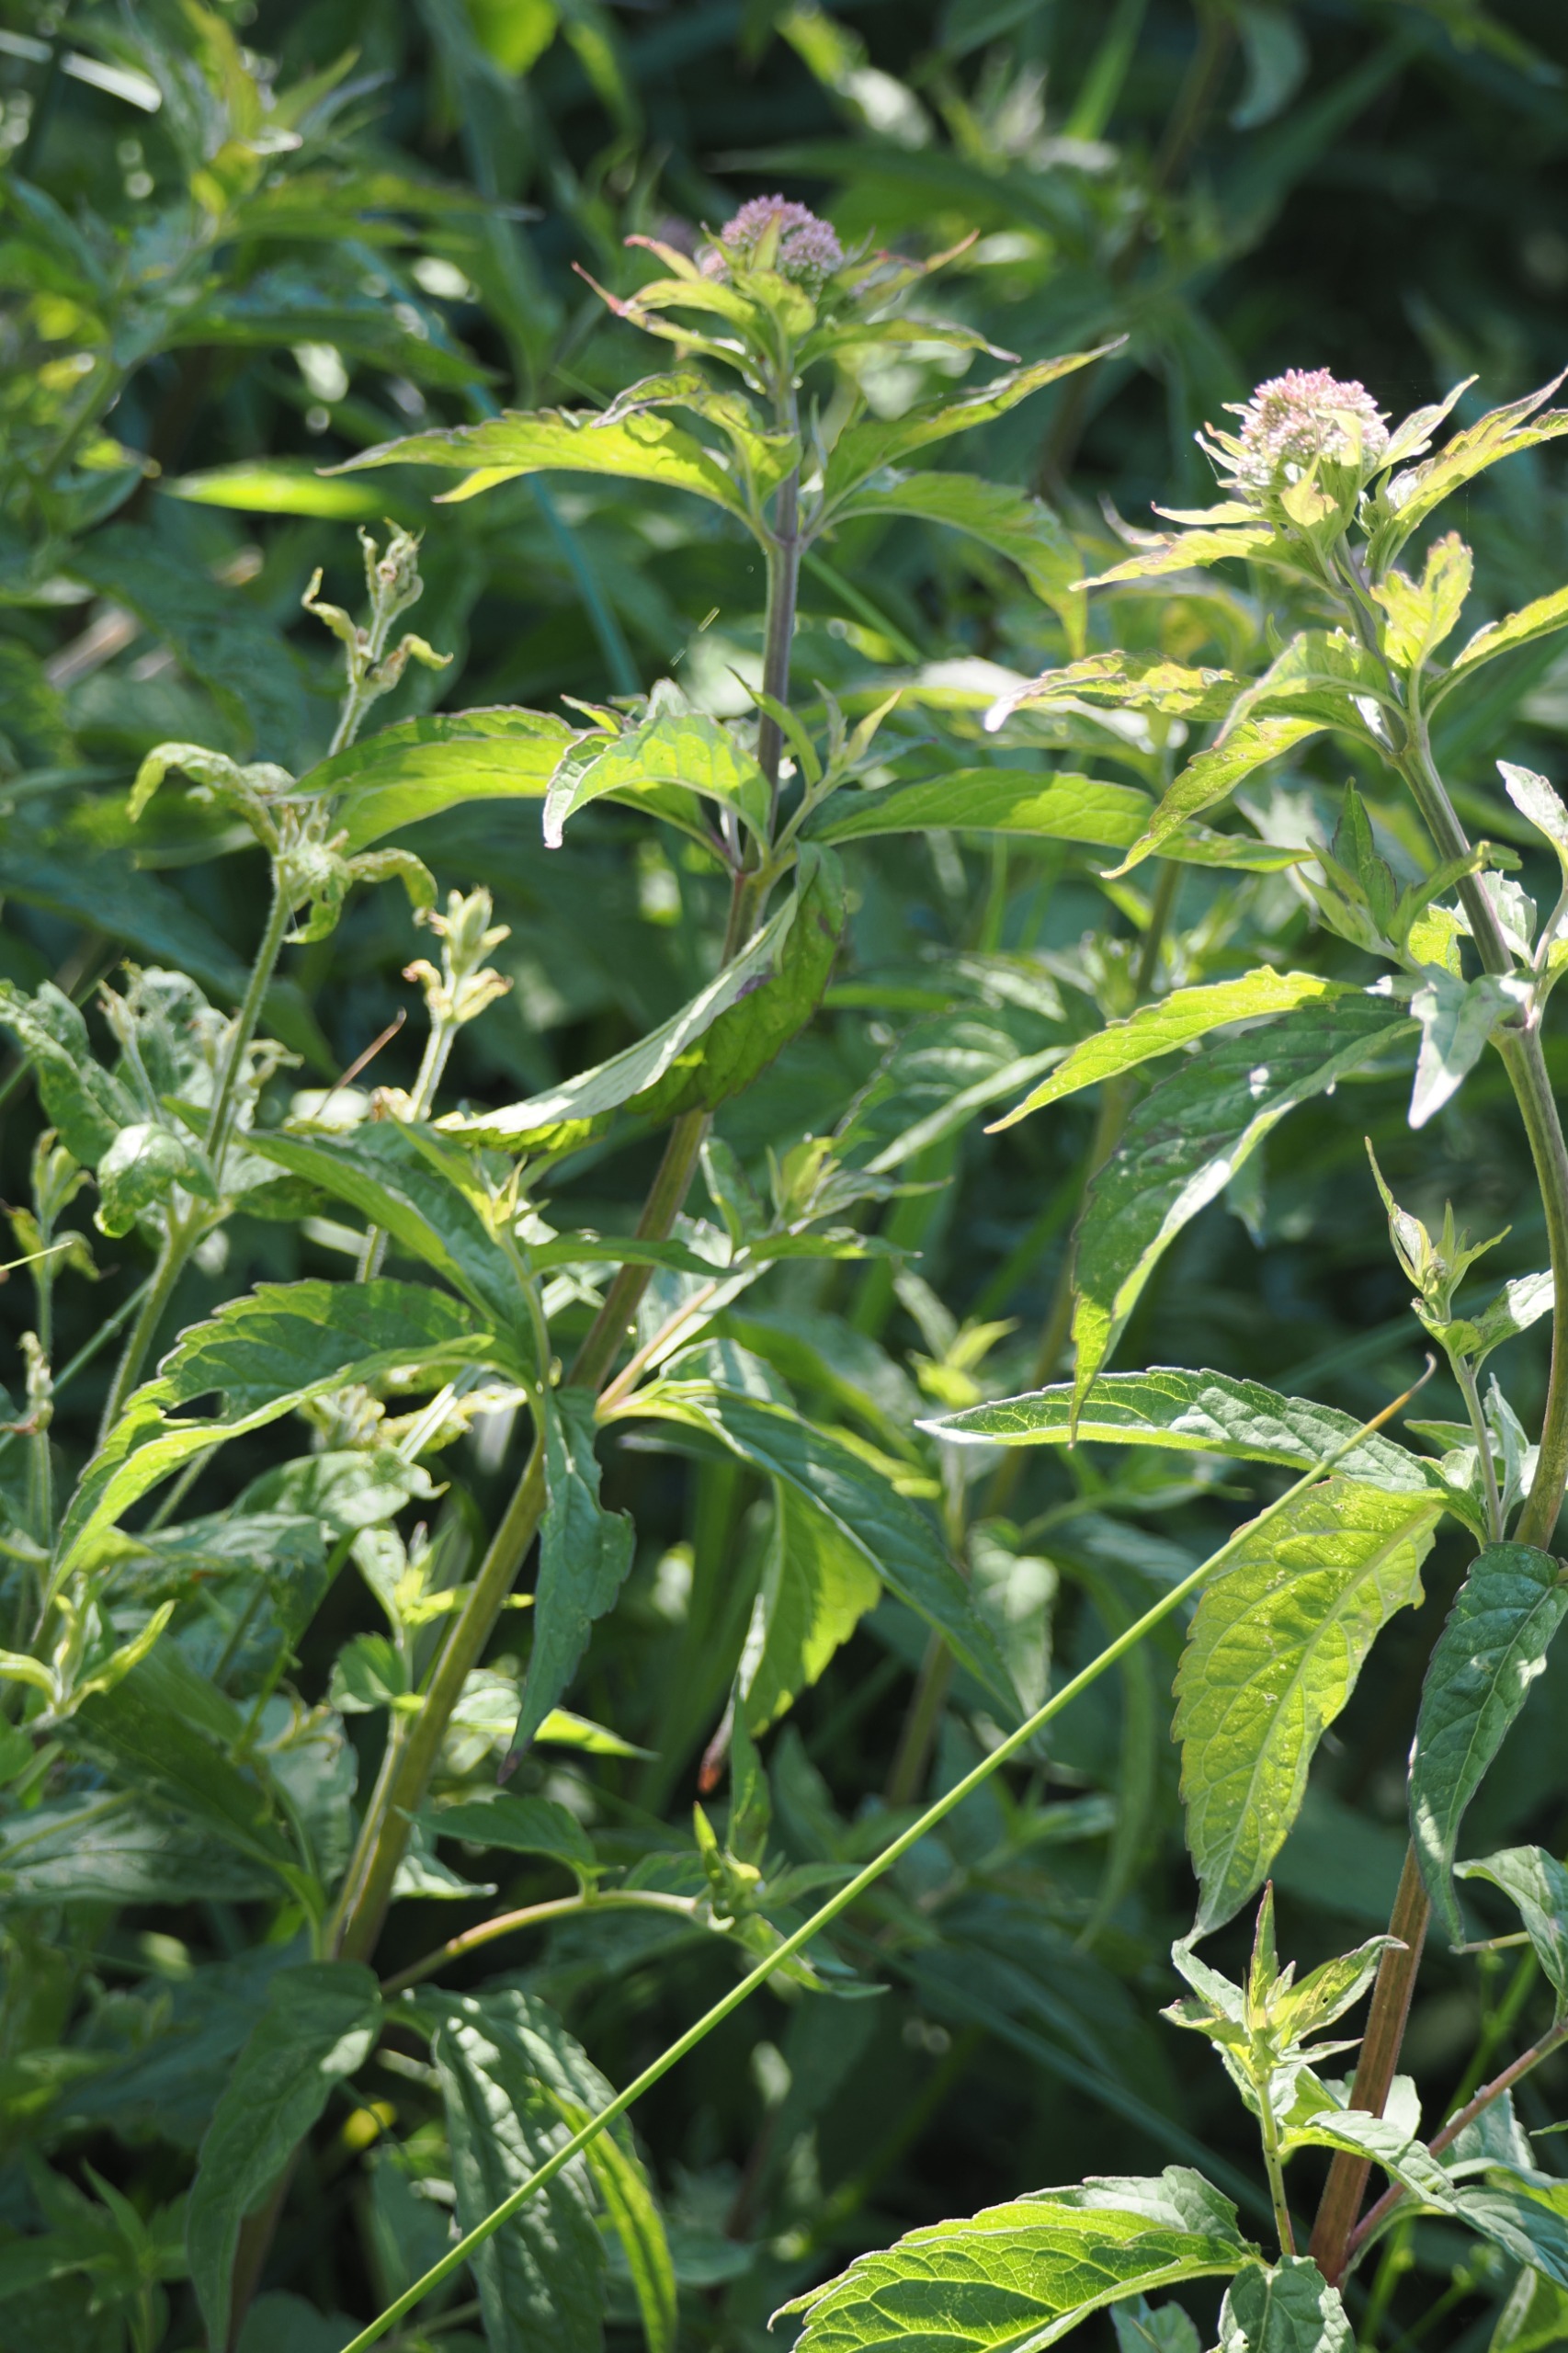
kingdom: Plantae
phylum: Tracheophyta
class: Magnoliopsida
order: Asterales
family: Asteraceae
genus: Eupatorium
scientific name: Eupatorium cannabinum
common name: Hjortetrøst
